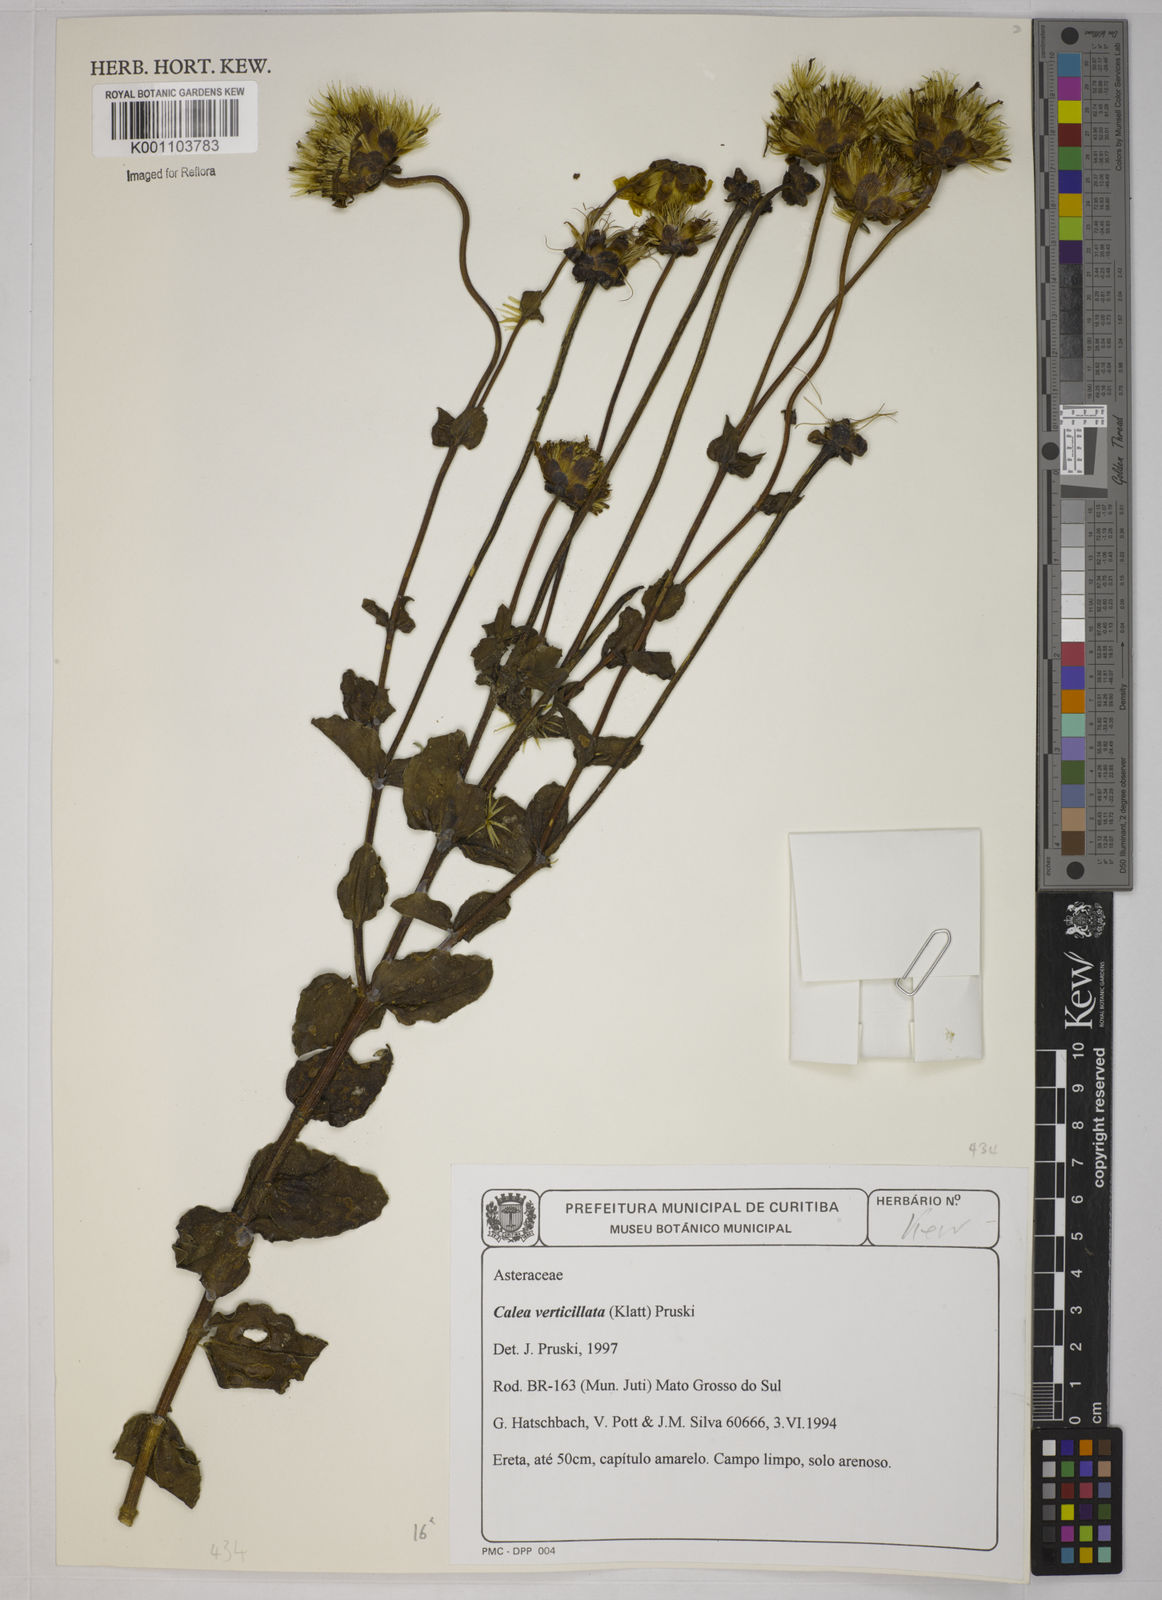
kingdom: Plantae
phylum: Tracheophyta
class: Magnoliopsida
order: Asterales
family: Asteraceae
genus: Calea
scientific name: Calea verticillata
